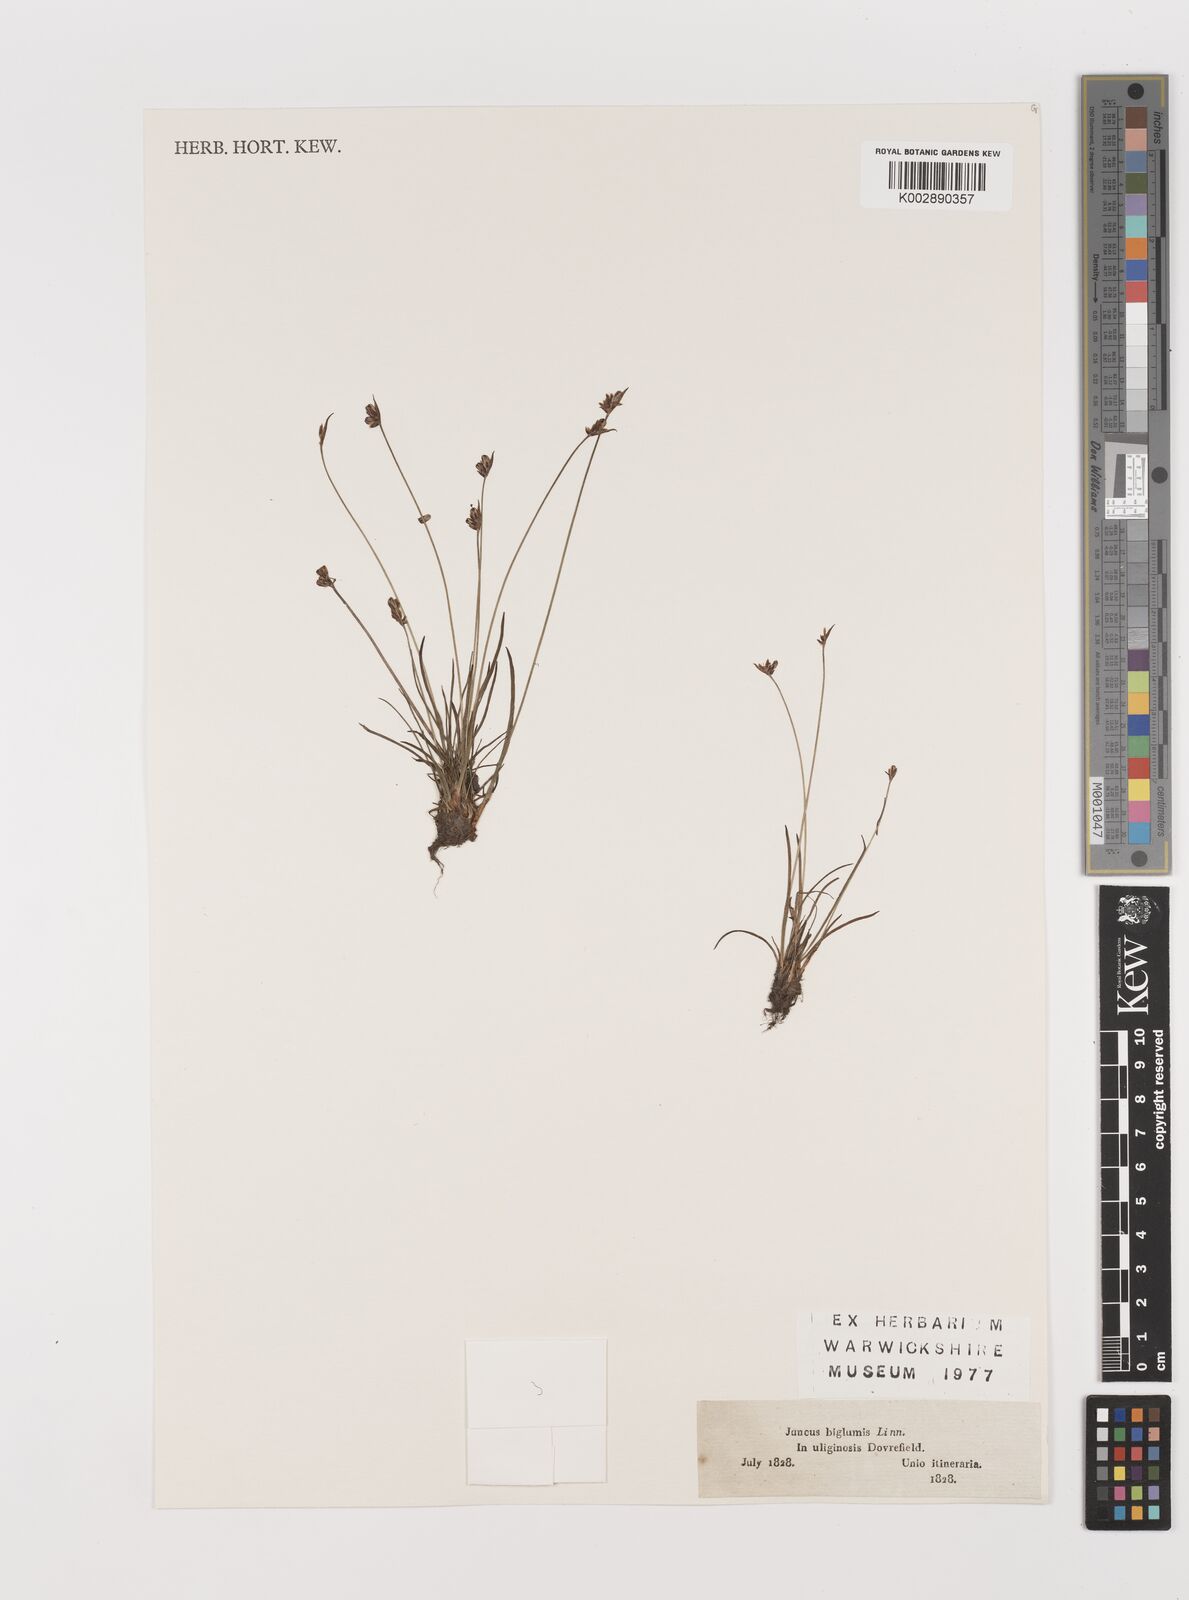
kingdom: Plantae
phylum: Tracheophyta
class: Liliopsida
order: Poales
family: Juncaceae
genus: Juncus
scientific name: Juncus biglumis
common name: Two-flowered rush
